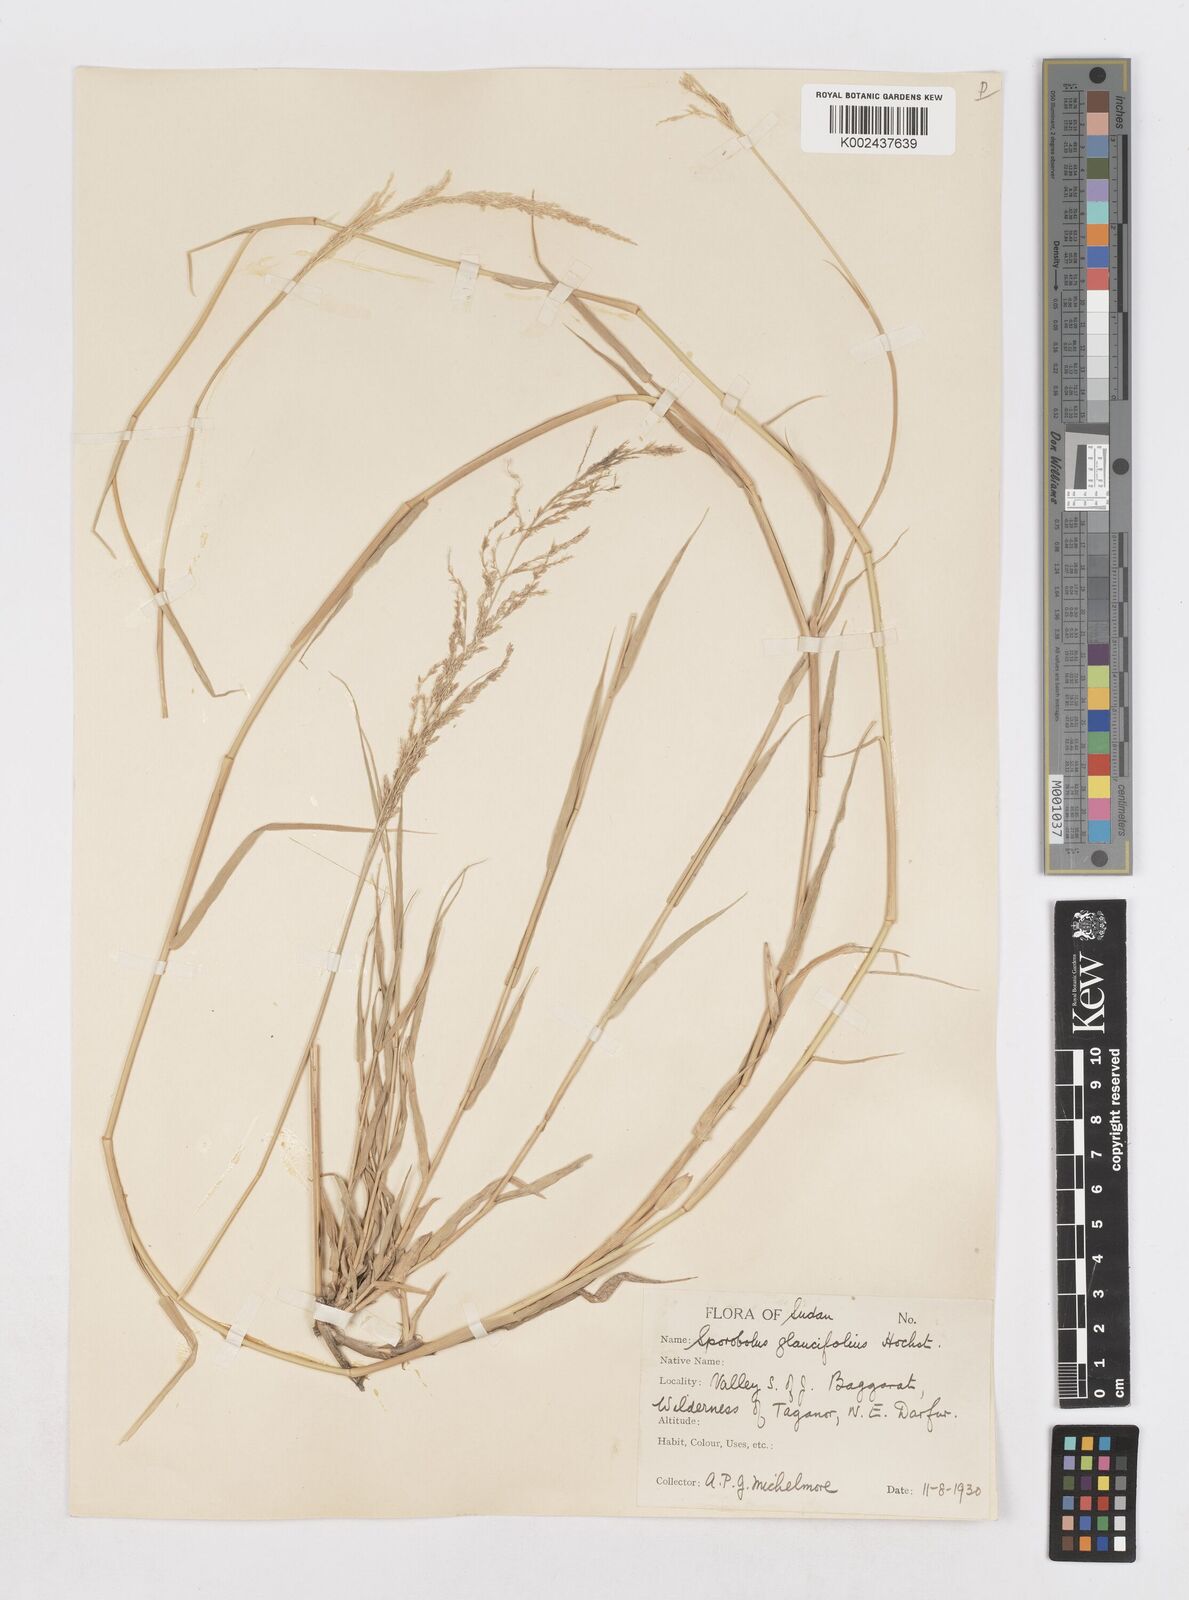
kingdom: Plantae
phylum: Tracheophyta
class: Liliopsida
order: Poales
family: Poaceae
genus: Sporobolus
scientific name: Sporobolus helvolus
